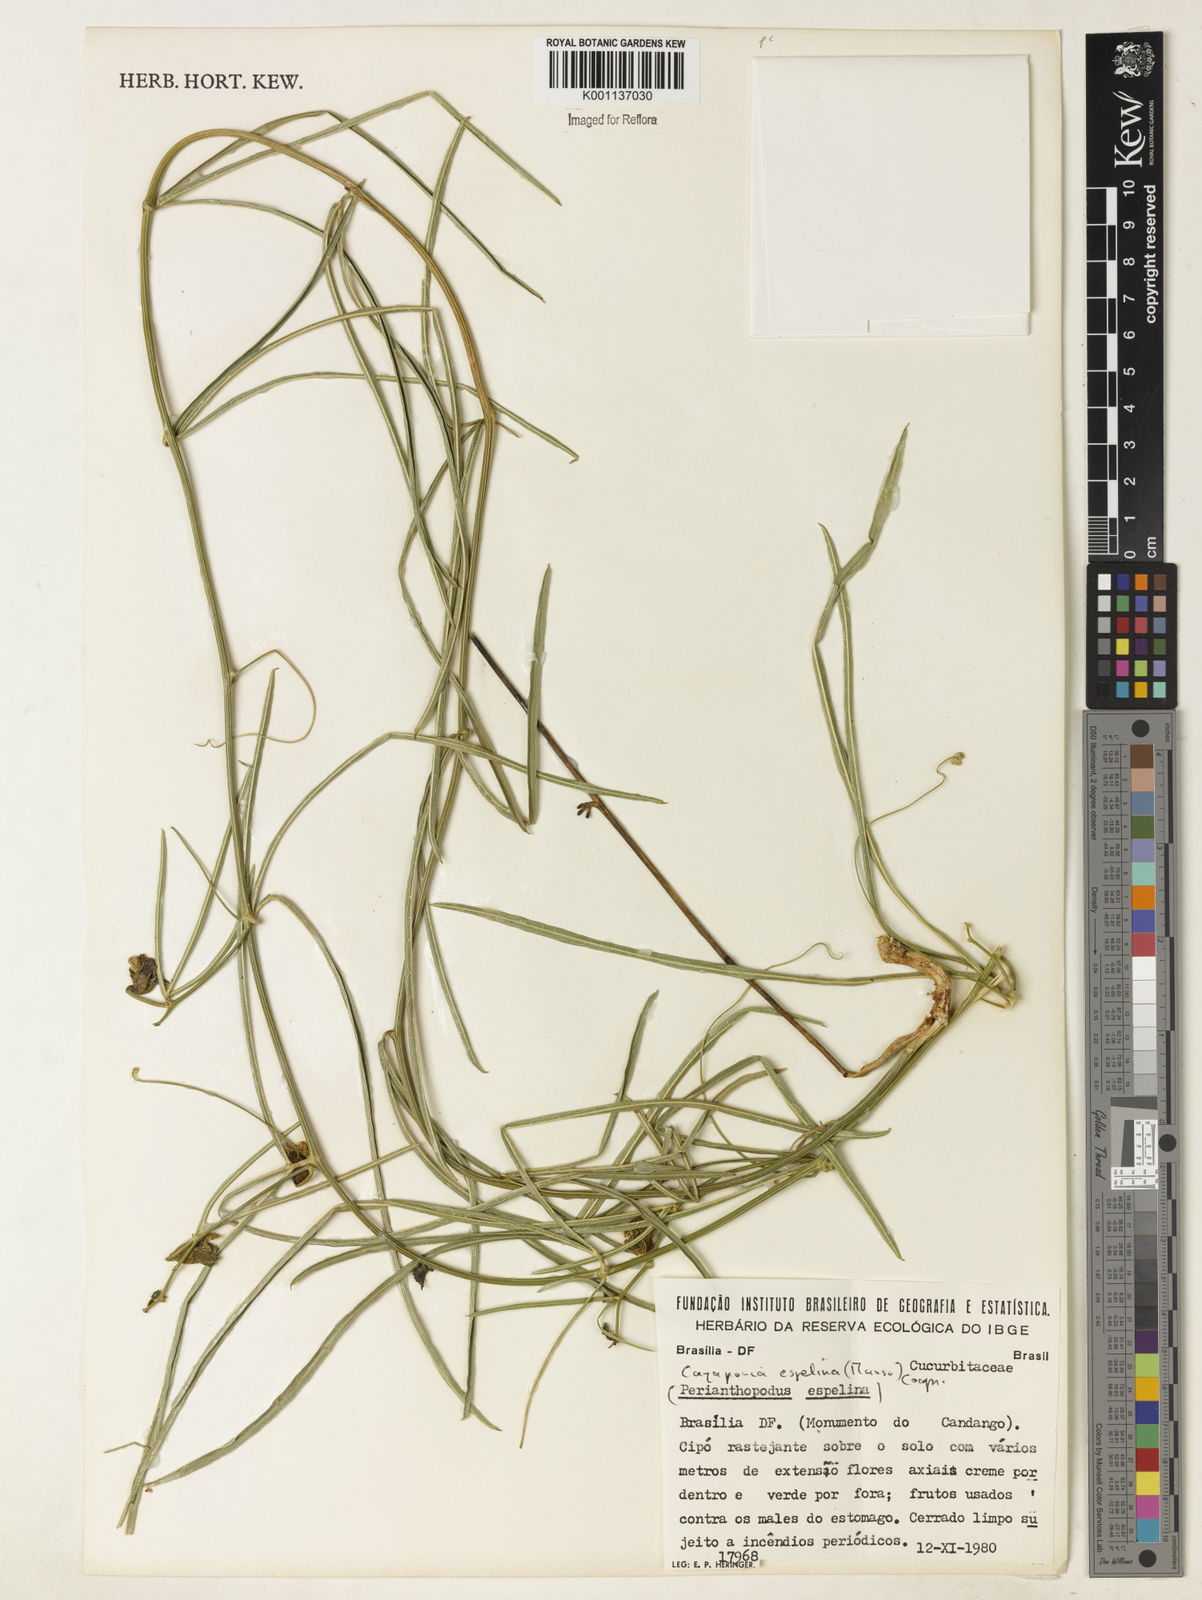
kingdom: Plantae
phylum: Tracheophyta
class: Magnoliopsida
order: Cucurbitales
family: Cucurbitaceae
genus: Cayaponia
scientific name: Cayaponia espelina
